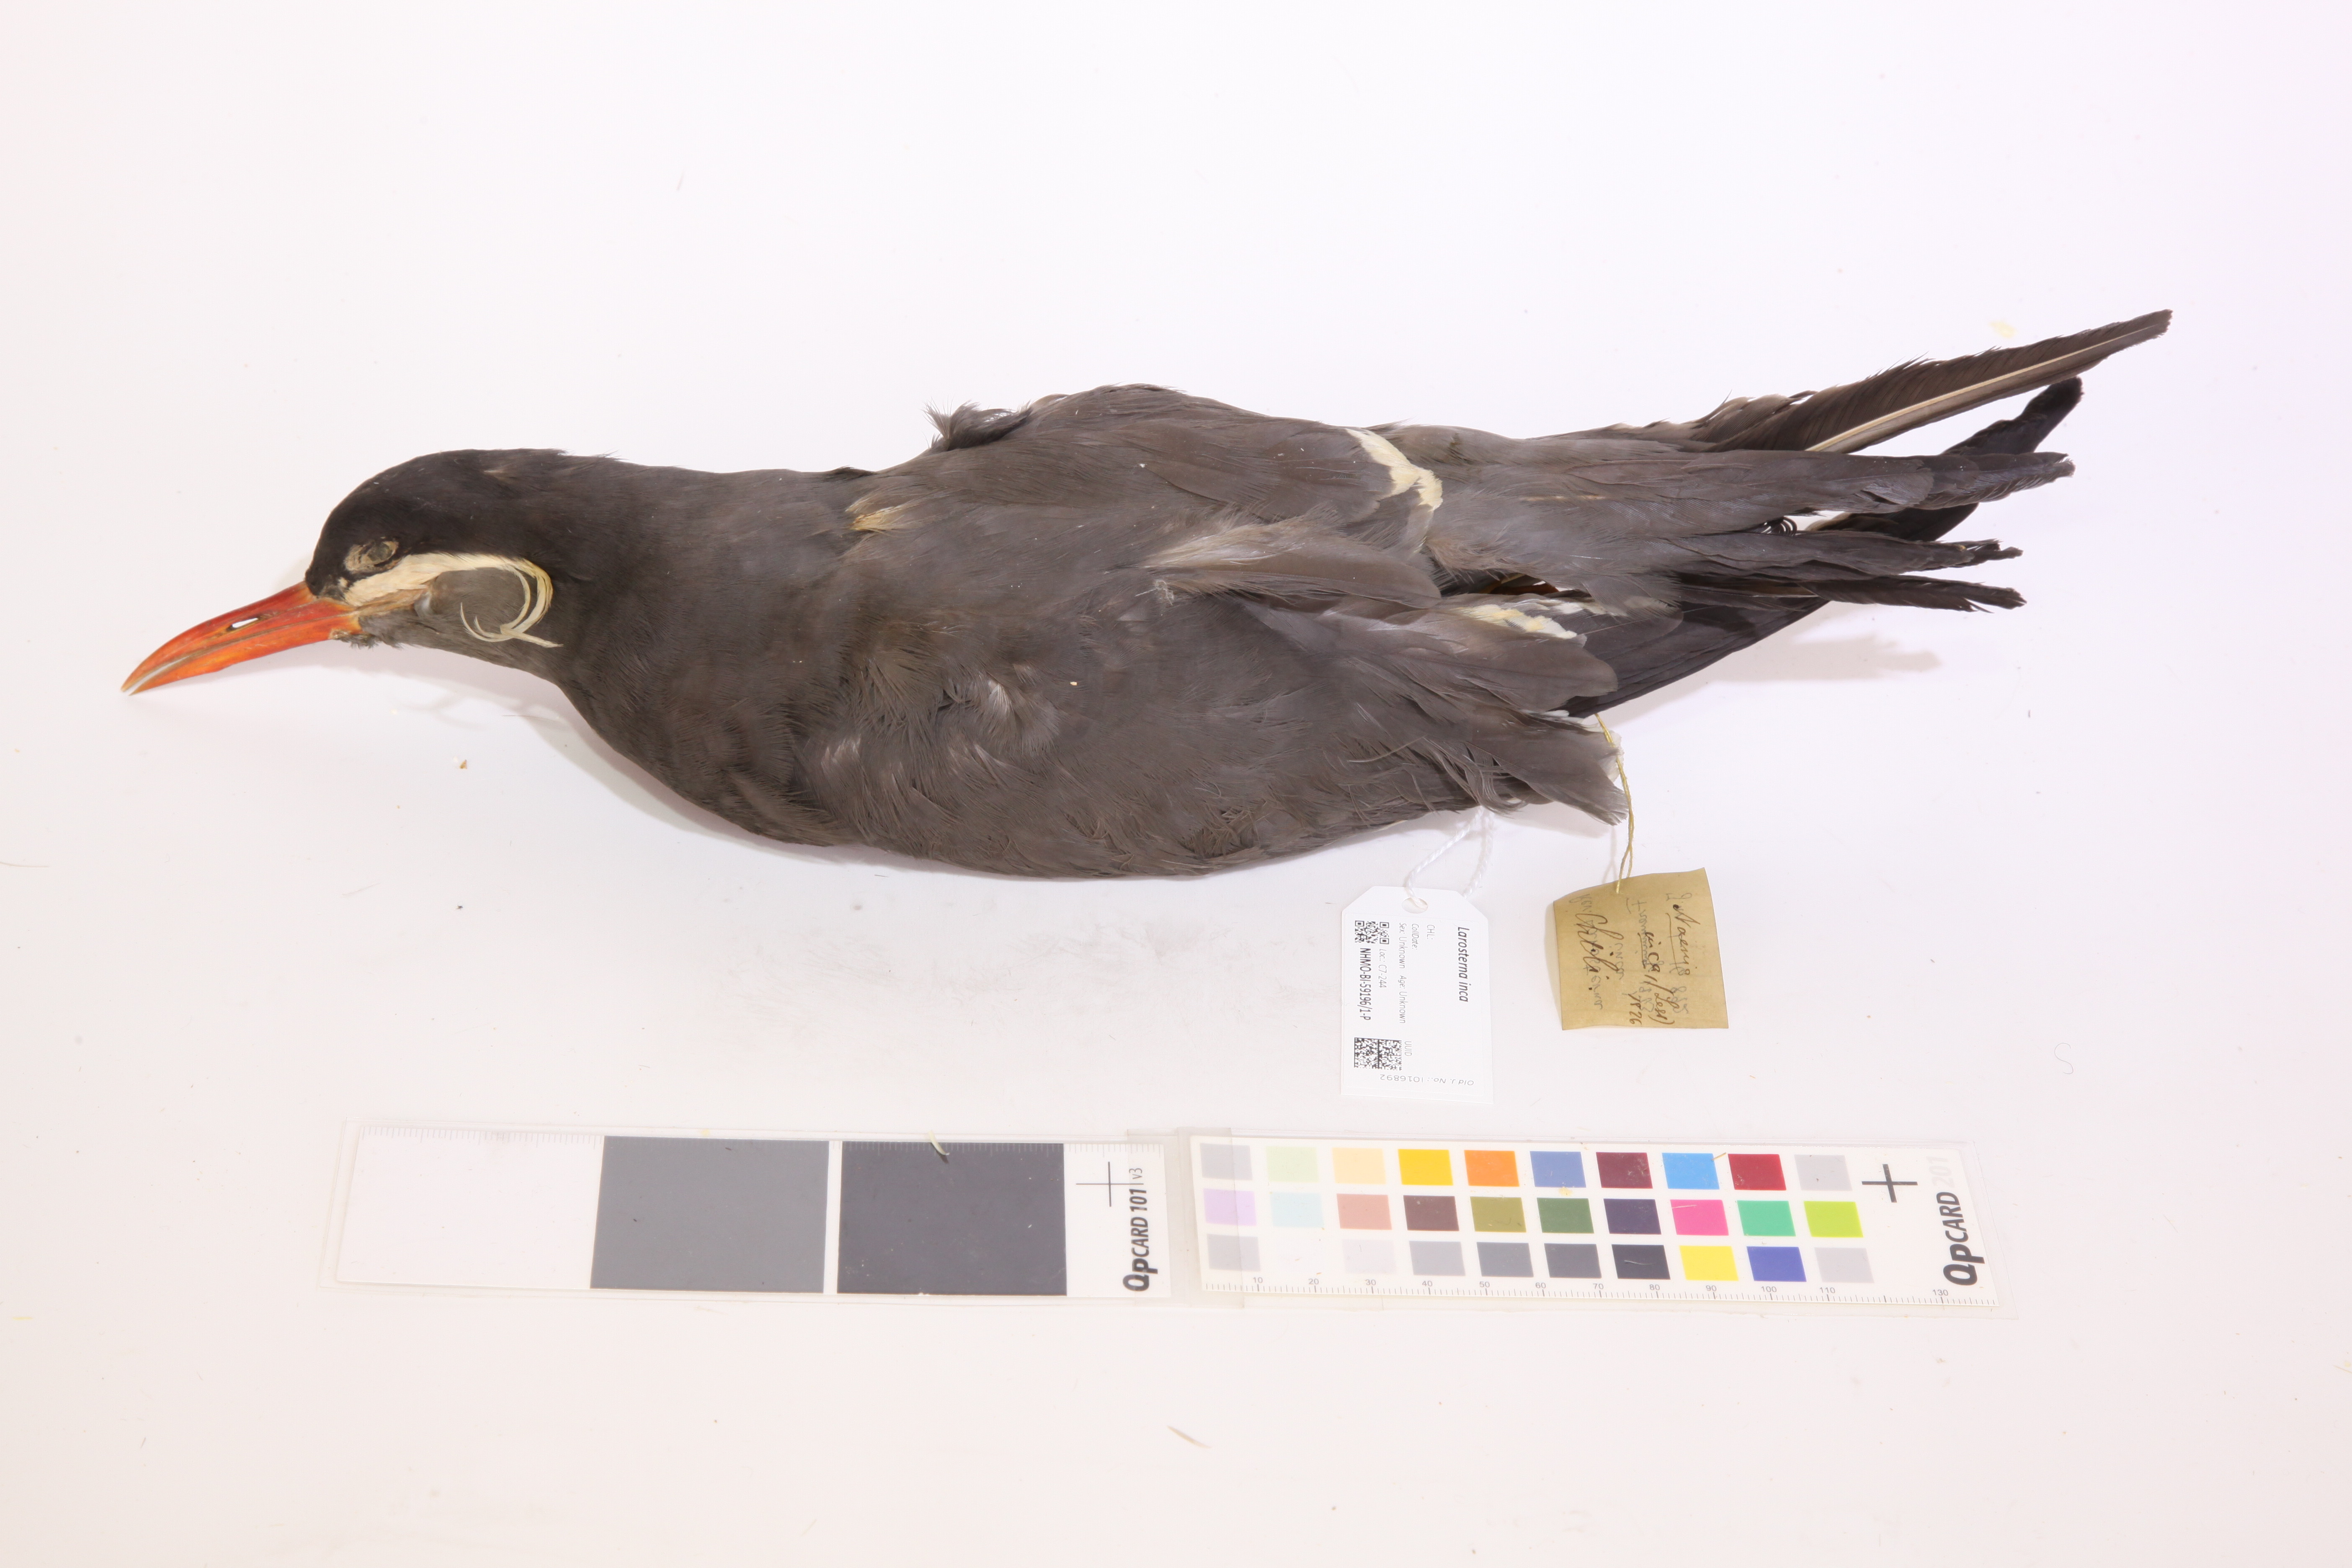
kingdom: Animalia
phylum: Chordata
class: Aves
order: Charadriiformes
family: Laridae
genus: Larosterna
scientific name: Larosterna inca
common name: Inca tern
